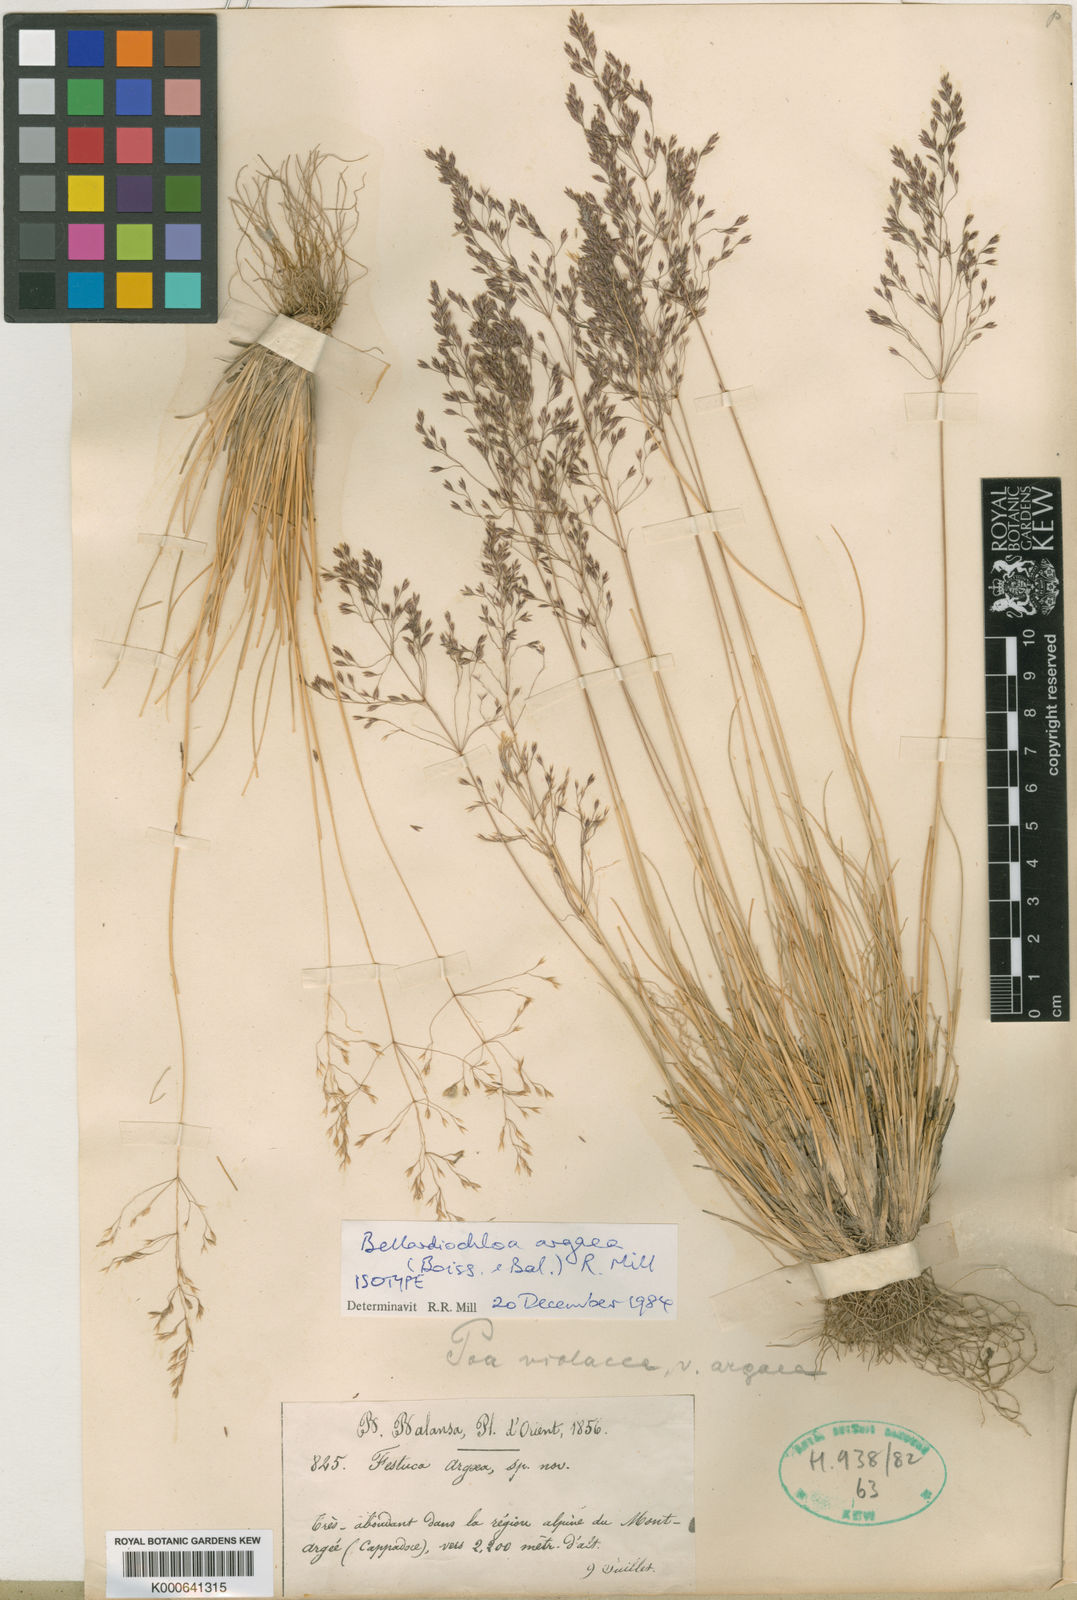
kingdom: Plantae
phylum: Tracheophyta
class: Liliopsida
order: Poales
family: Poaceae
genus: Bellardiochloa
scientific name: Bellardiochloa argaea
